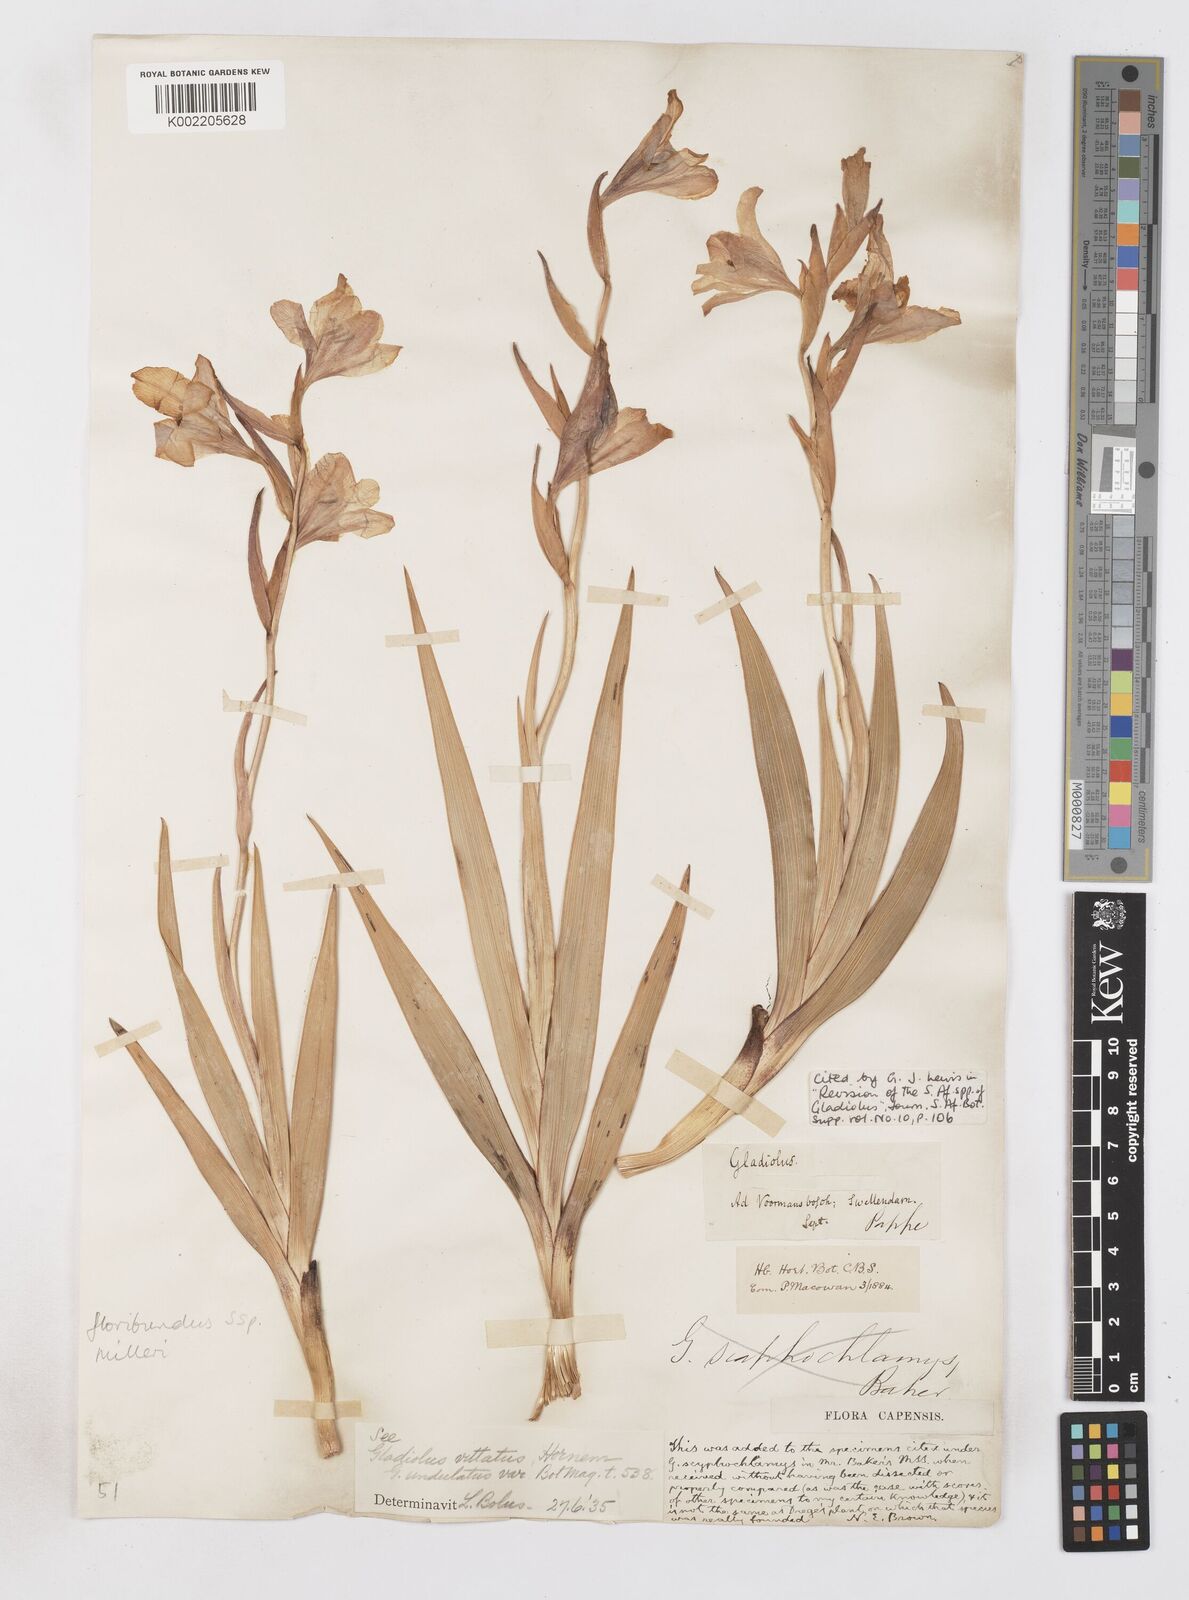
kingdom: Plantae
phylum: Tracheophyta
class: Liliopsida
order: Asparagales
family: Iridaceae
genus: Gladiolus
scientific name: Gladiolus grandiflorus
